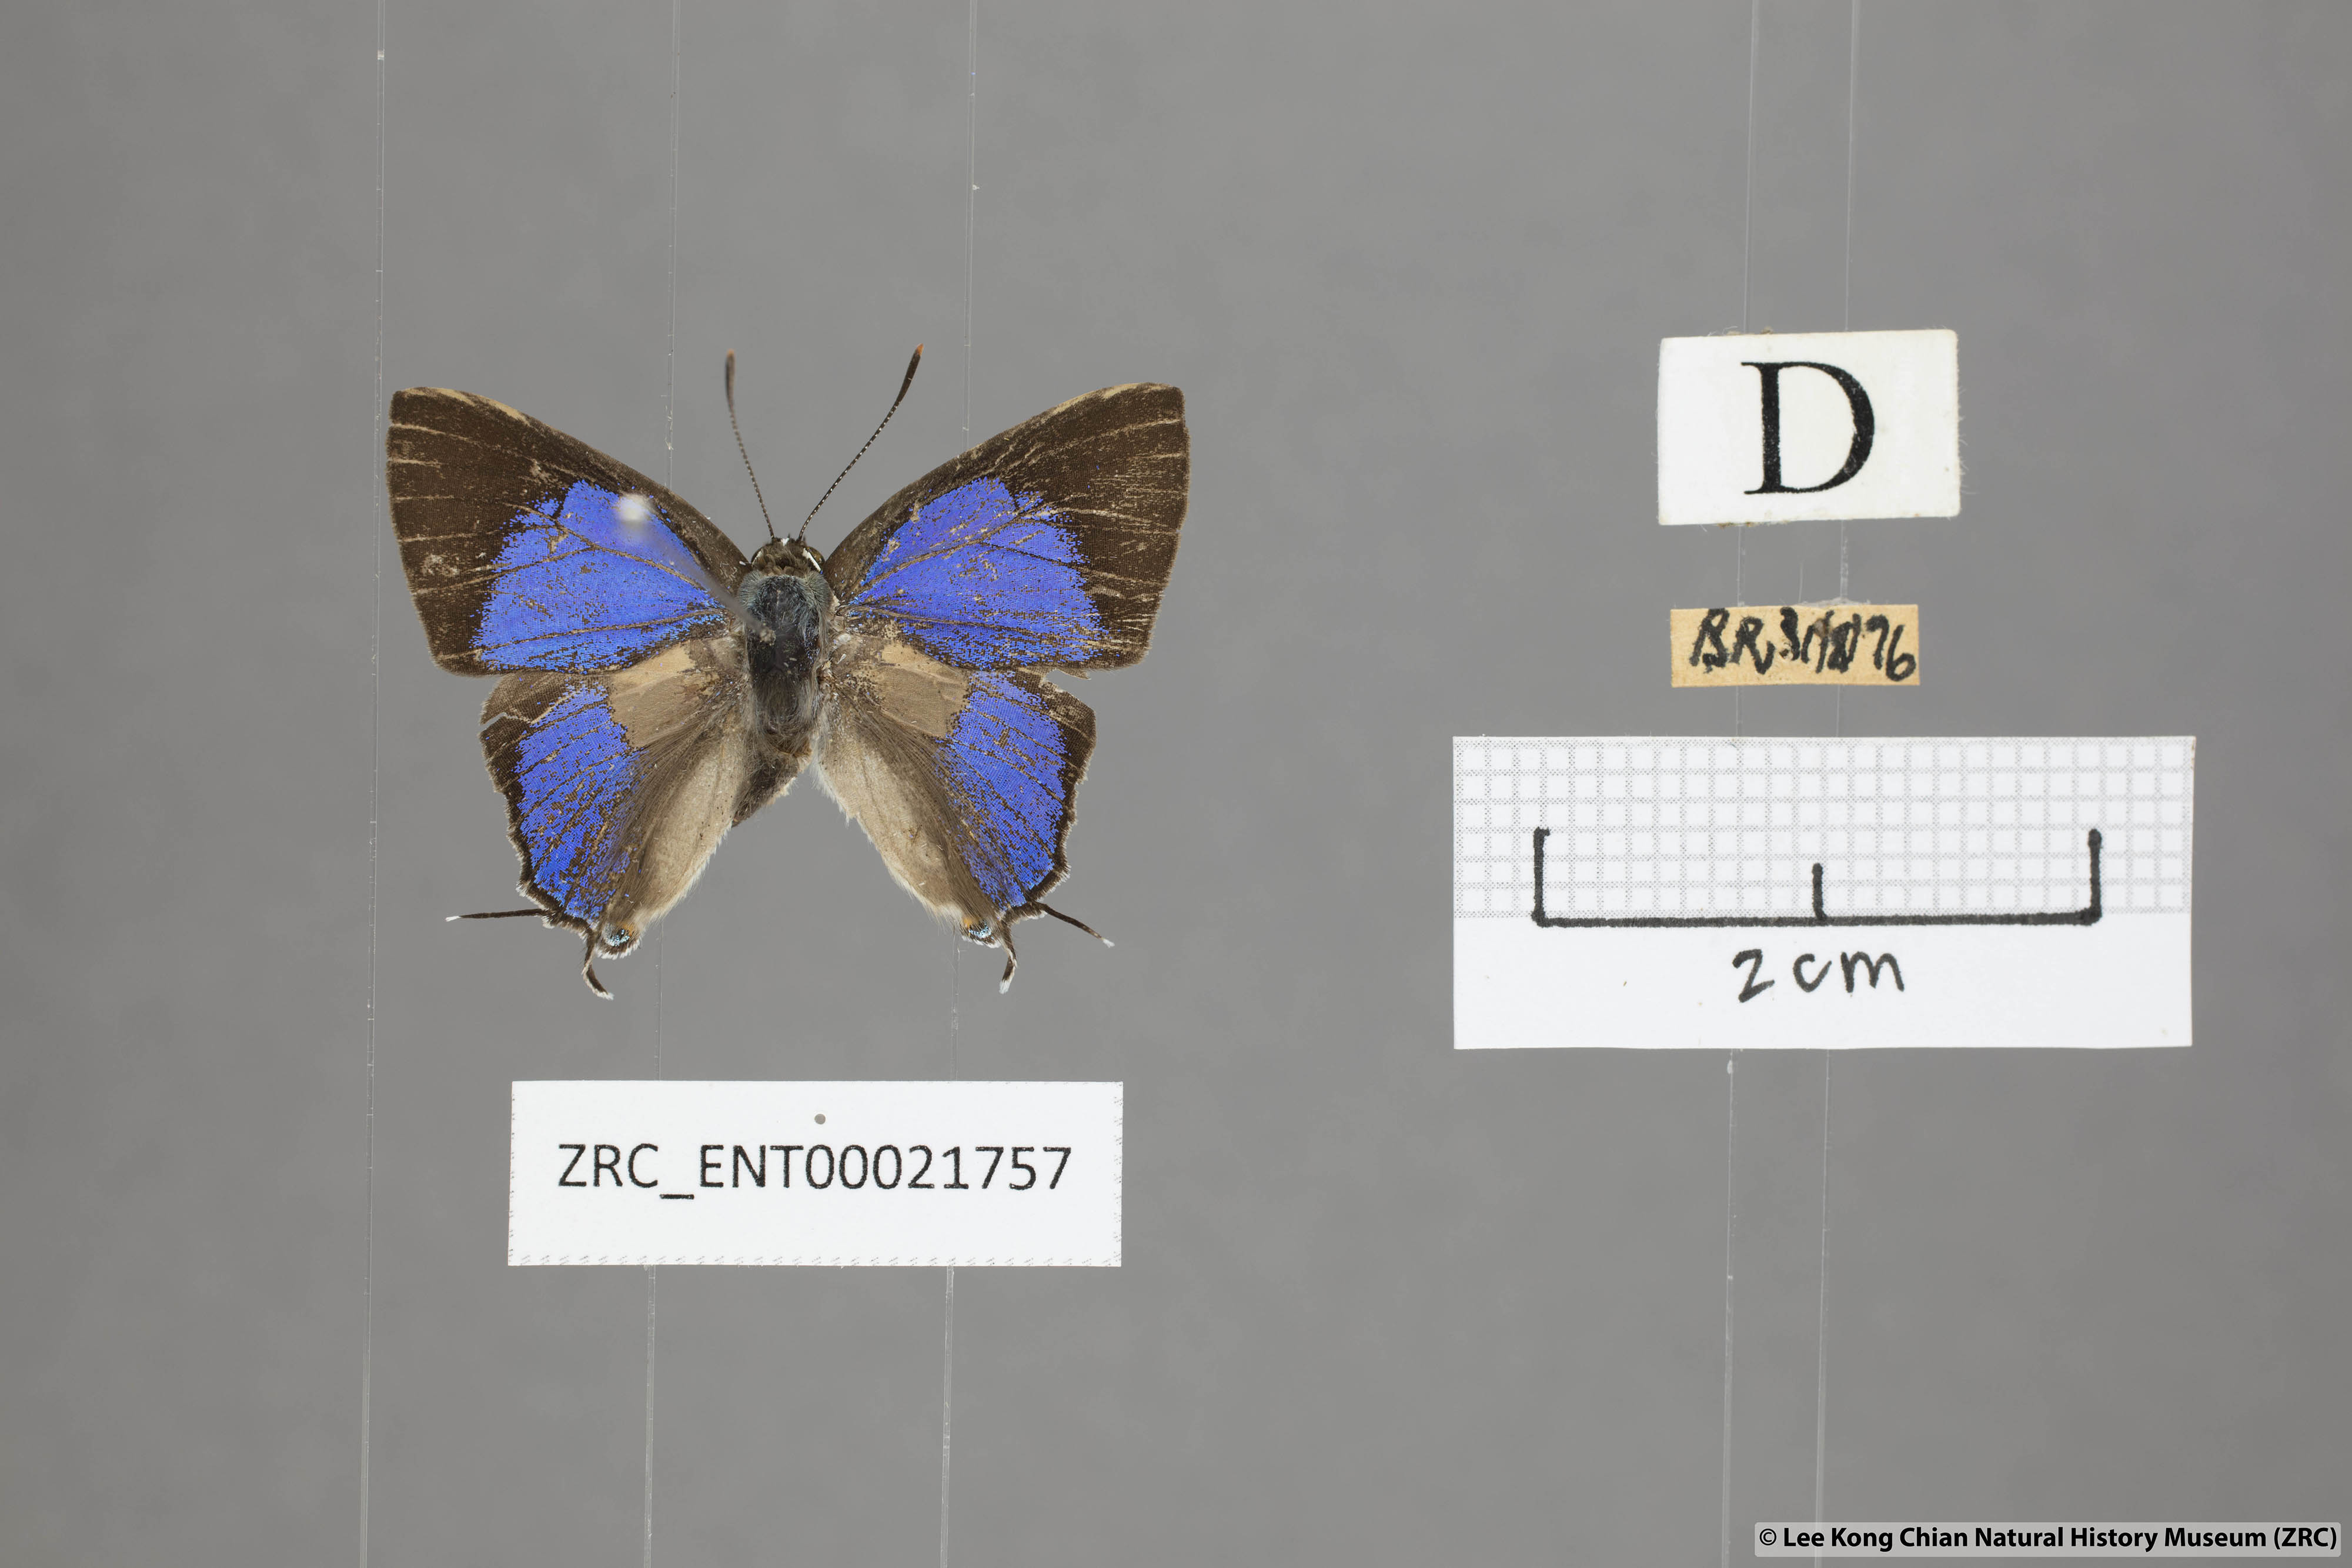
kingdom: Animalia
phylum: Arthropoda
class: Insecta
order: Lepidoptera
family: Lycaenidae
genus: Pratapa
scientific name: Pratapa
